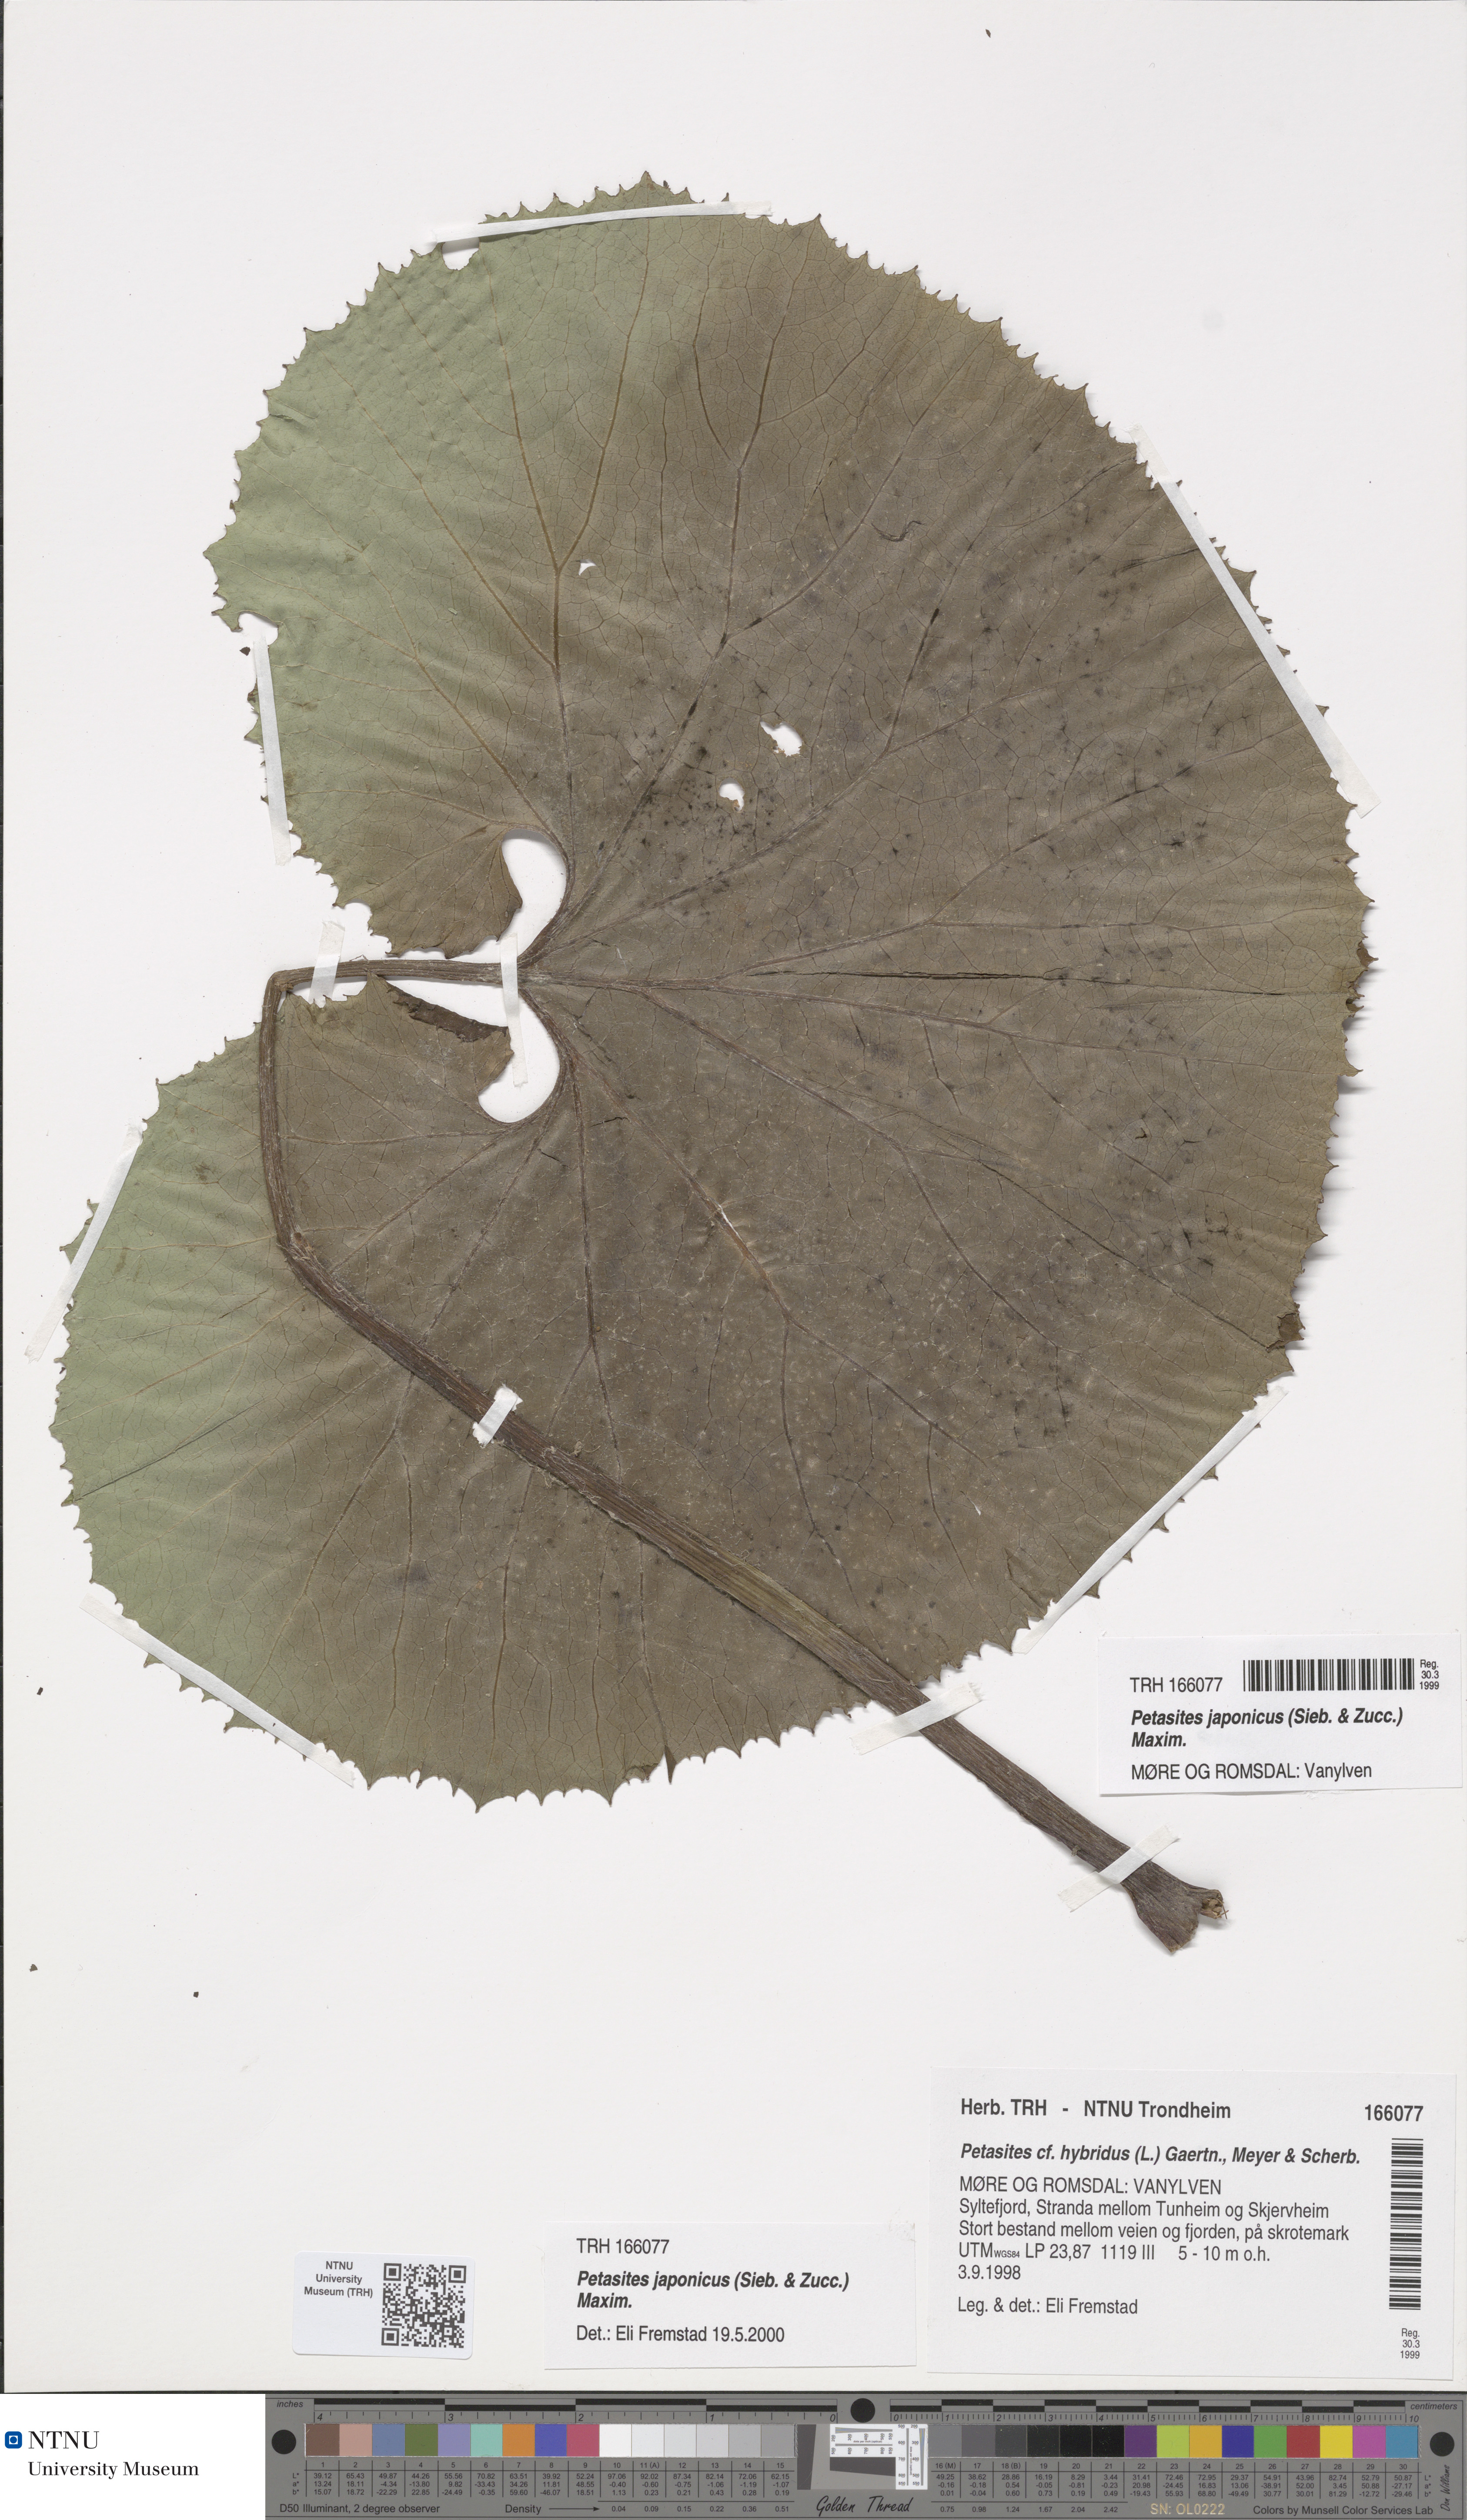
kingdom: Plantae
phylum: Tracheophyta
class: Magnoliopsida
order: Asterales
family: Asteraceae
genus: Petasites
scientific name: Petasites japonicus
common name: Giant butterbur
